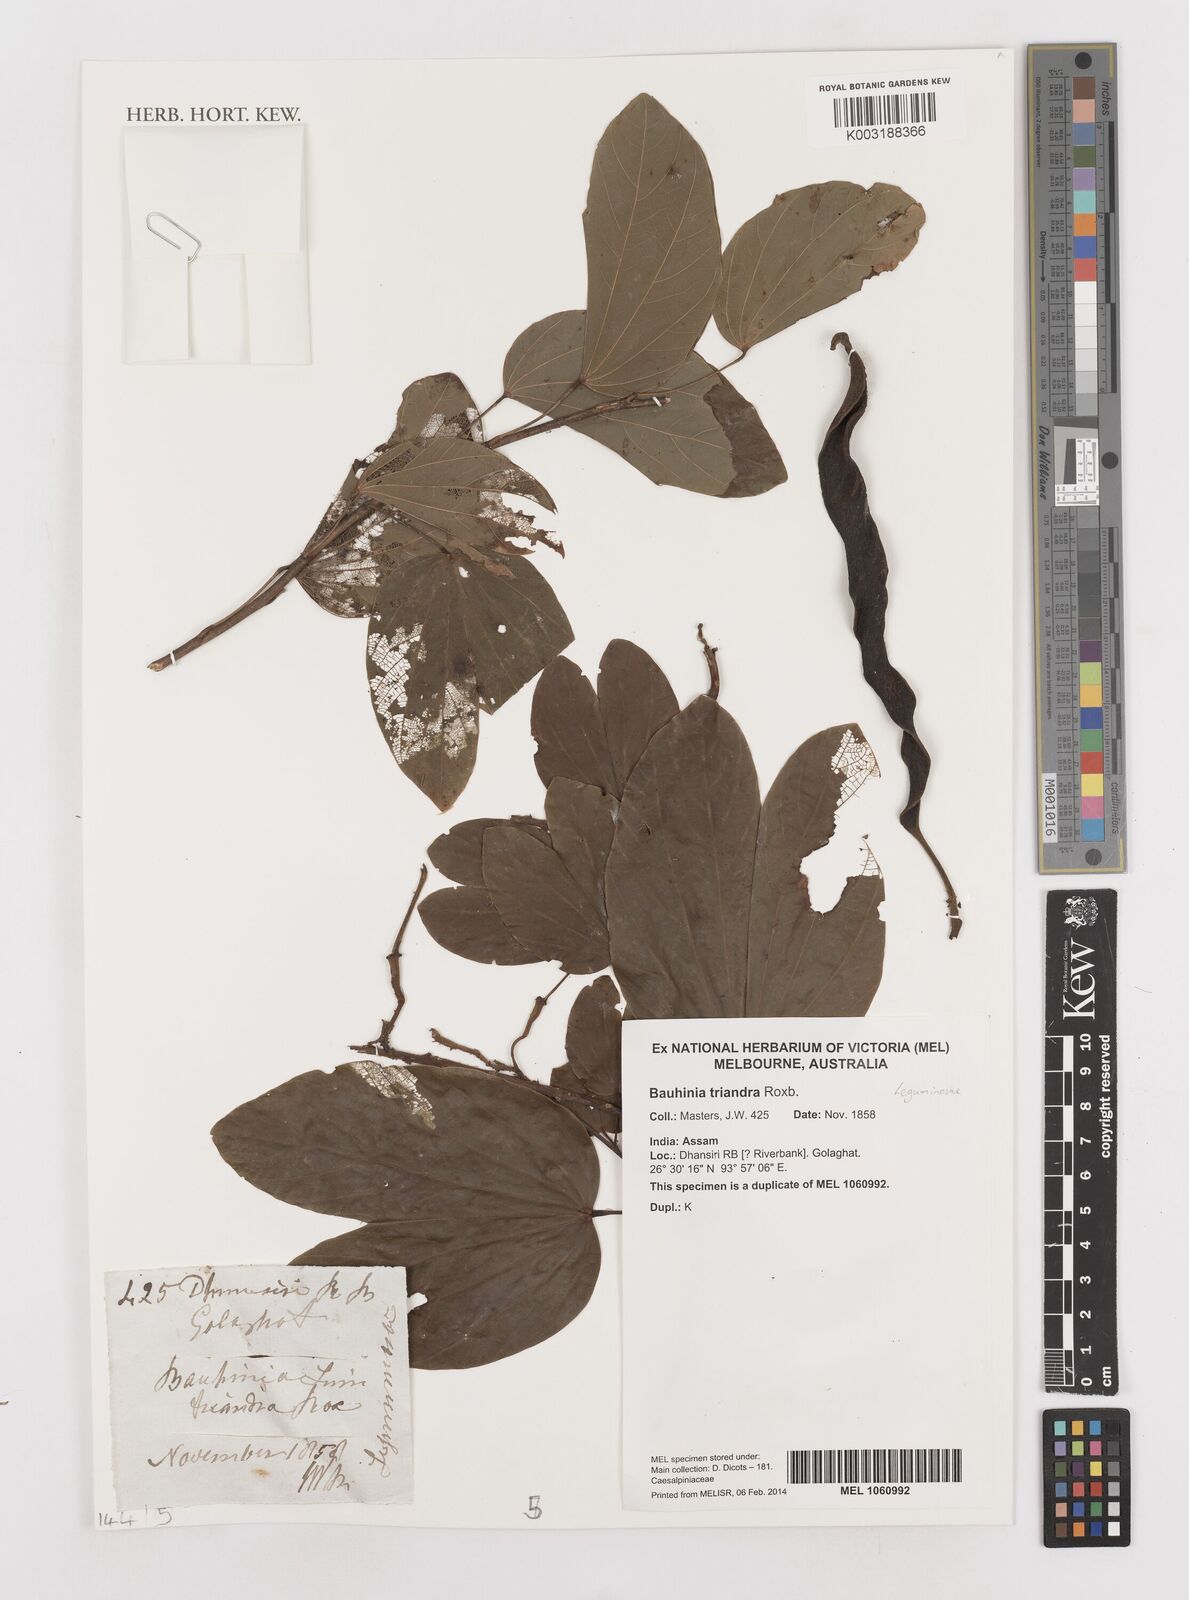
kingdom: Plantae
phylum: Tracheophyta
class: Magnoliopsida
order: Fabales
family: Fabaceae
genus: Bauhinia
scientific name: Bauhinia purpurea
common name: Butterfly-tree
